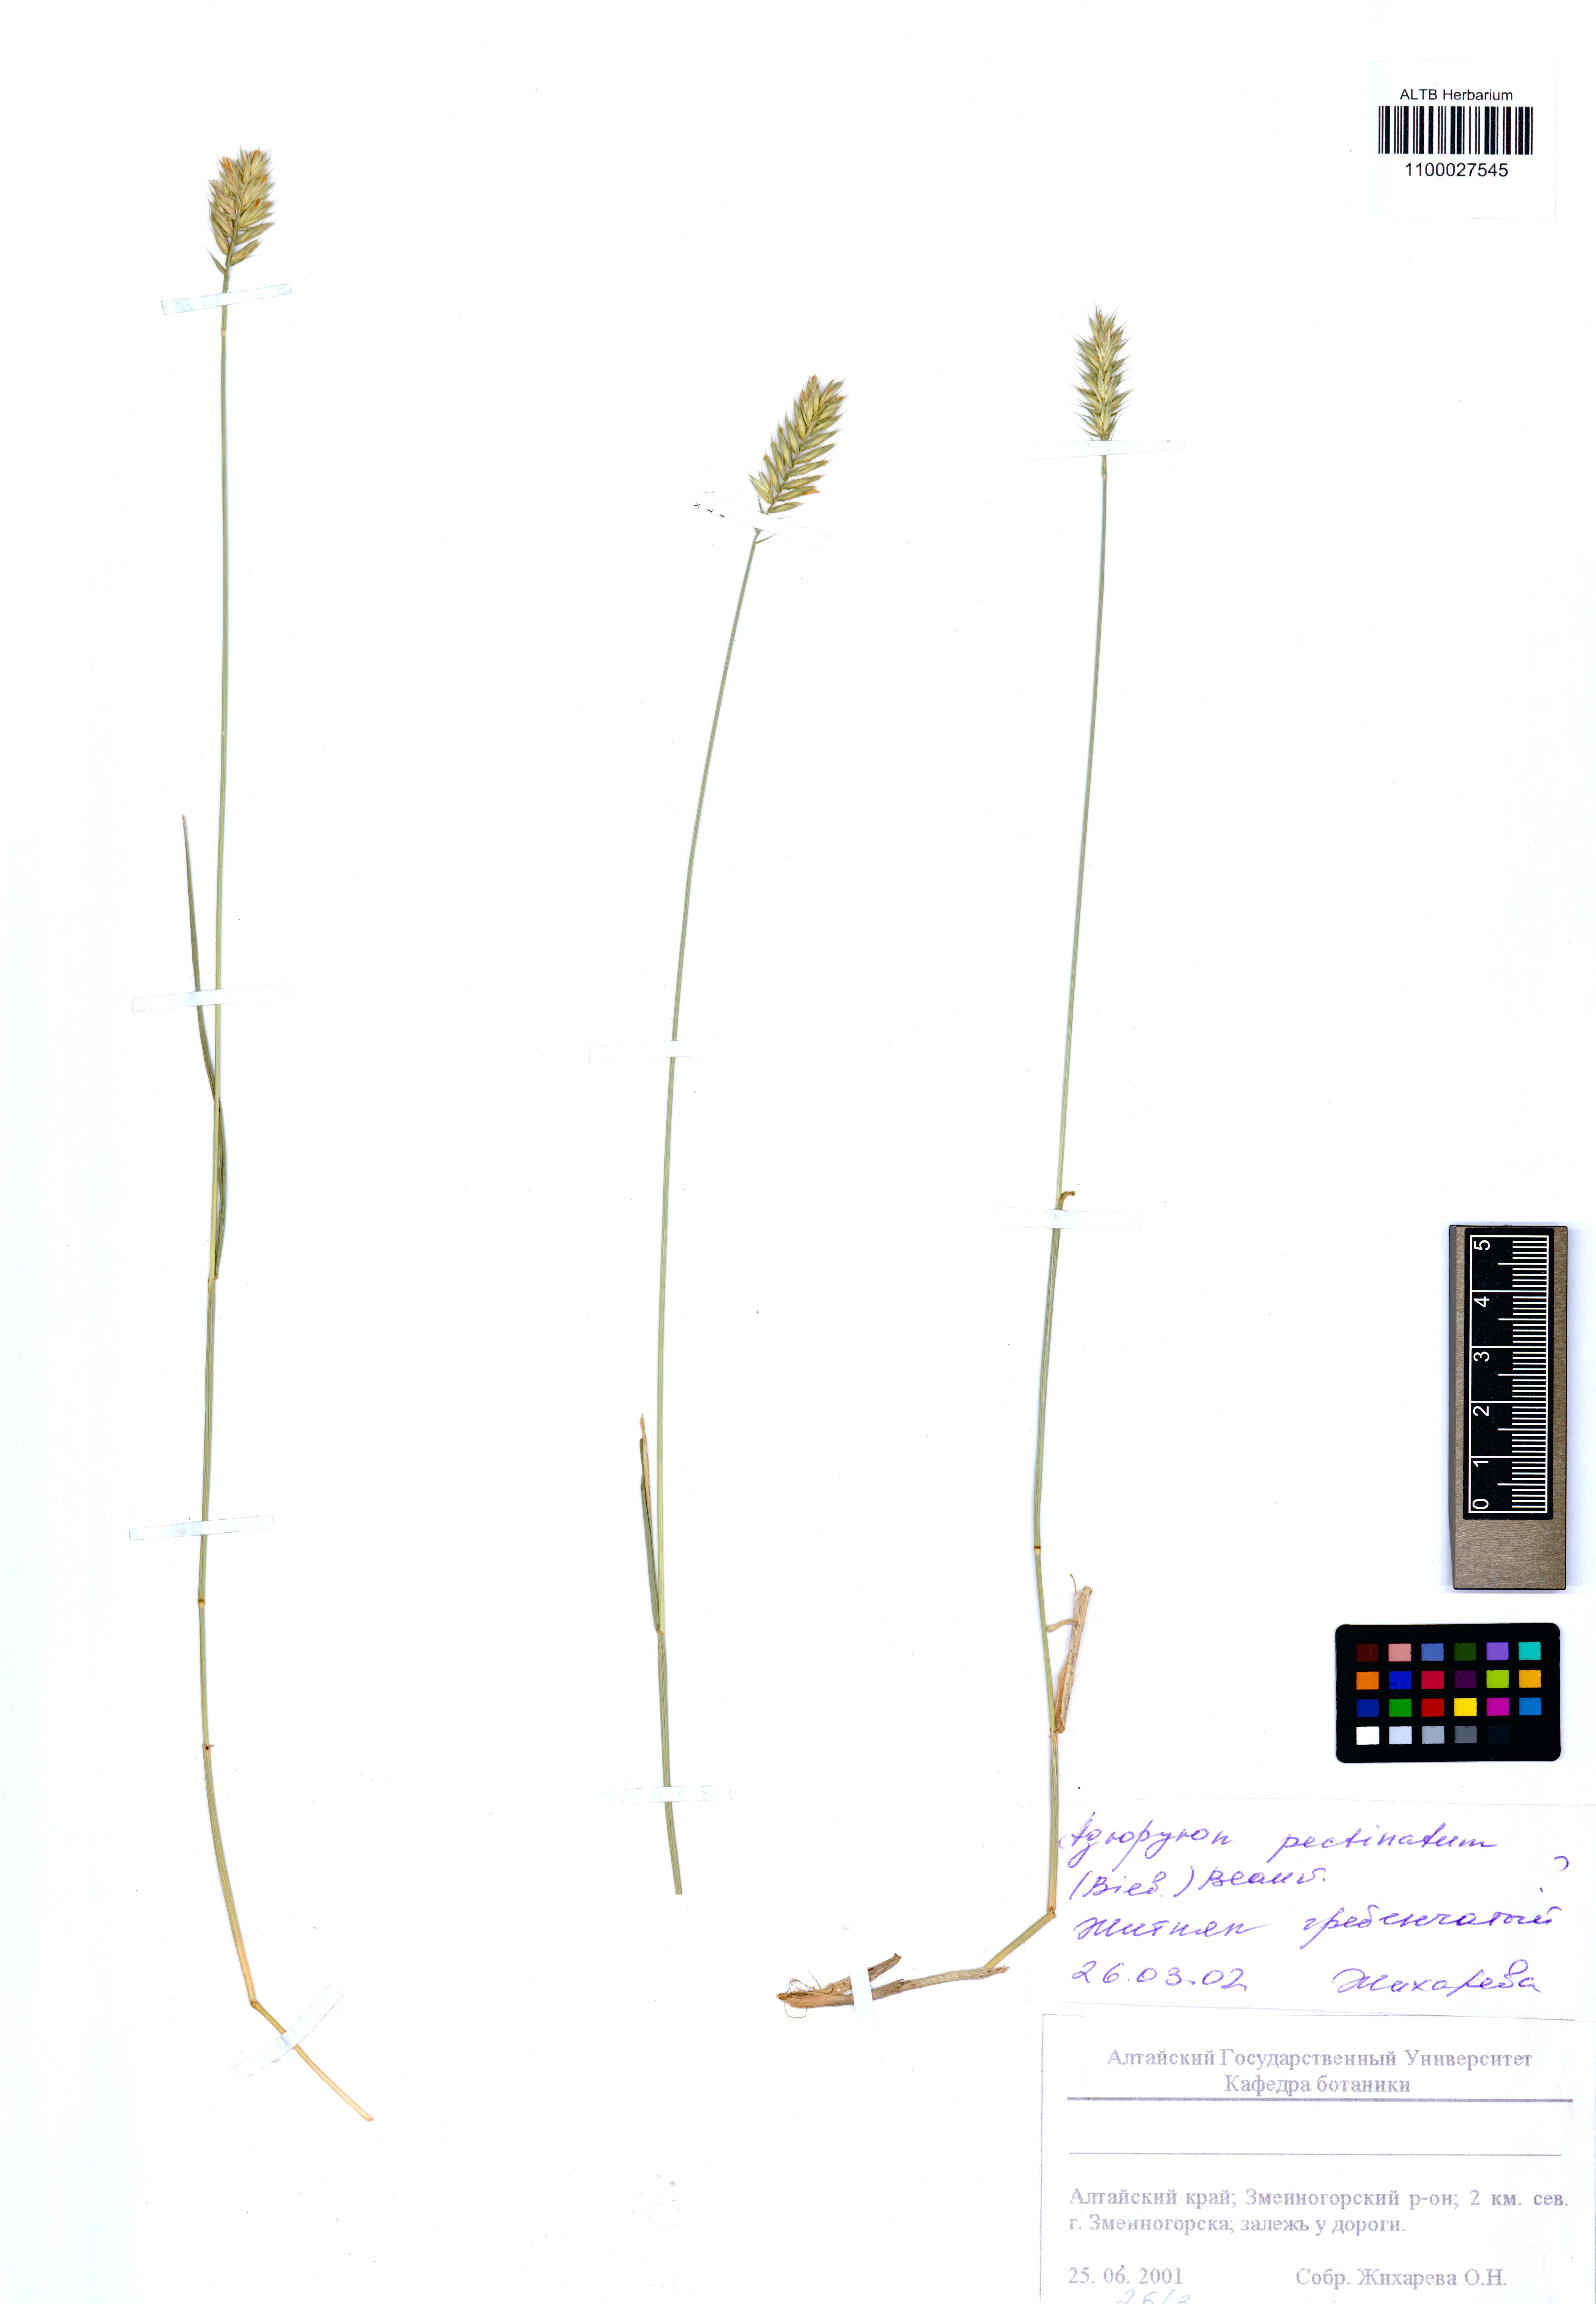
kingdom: Plantae
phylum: Tracheophyta
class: Liliopsida
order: Poales
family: Poaceae
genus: Agropyron
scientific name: Agropyron cristatum
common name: Crested wheatgrass
